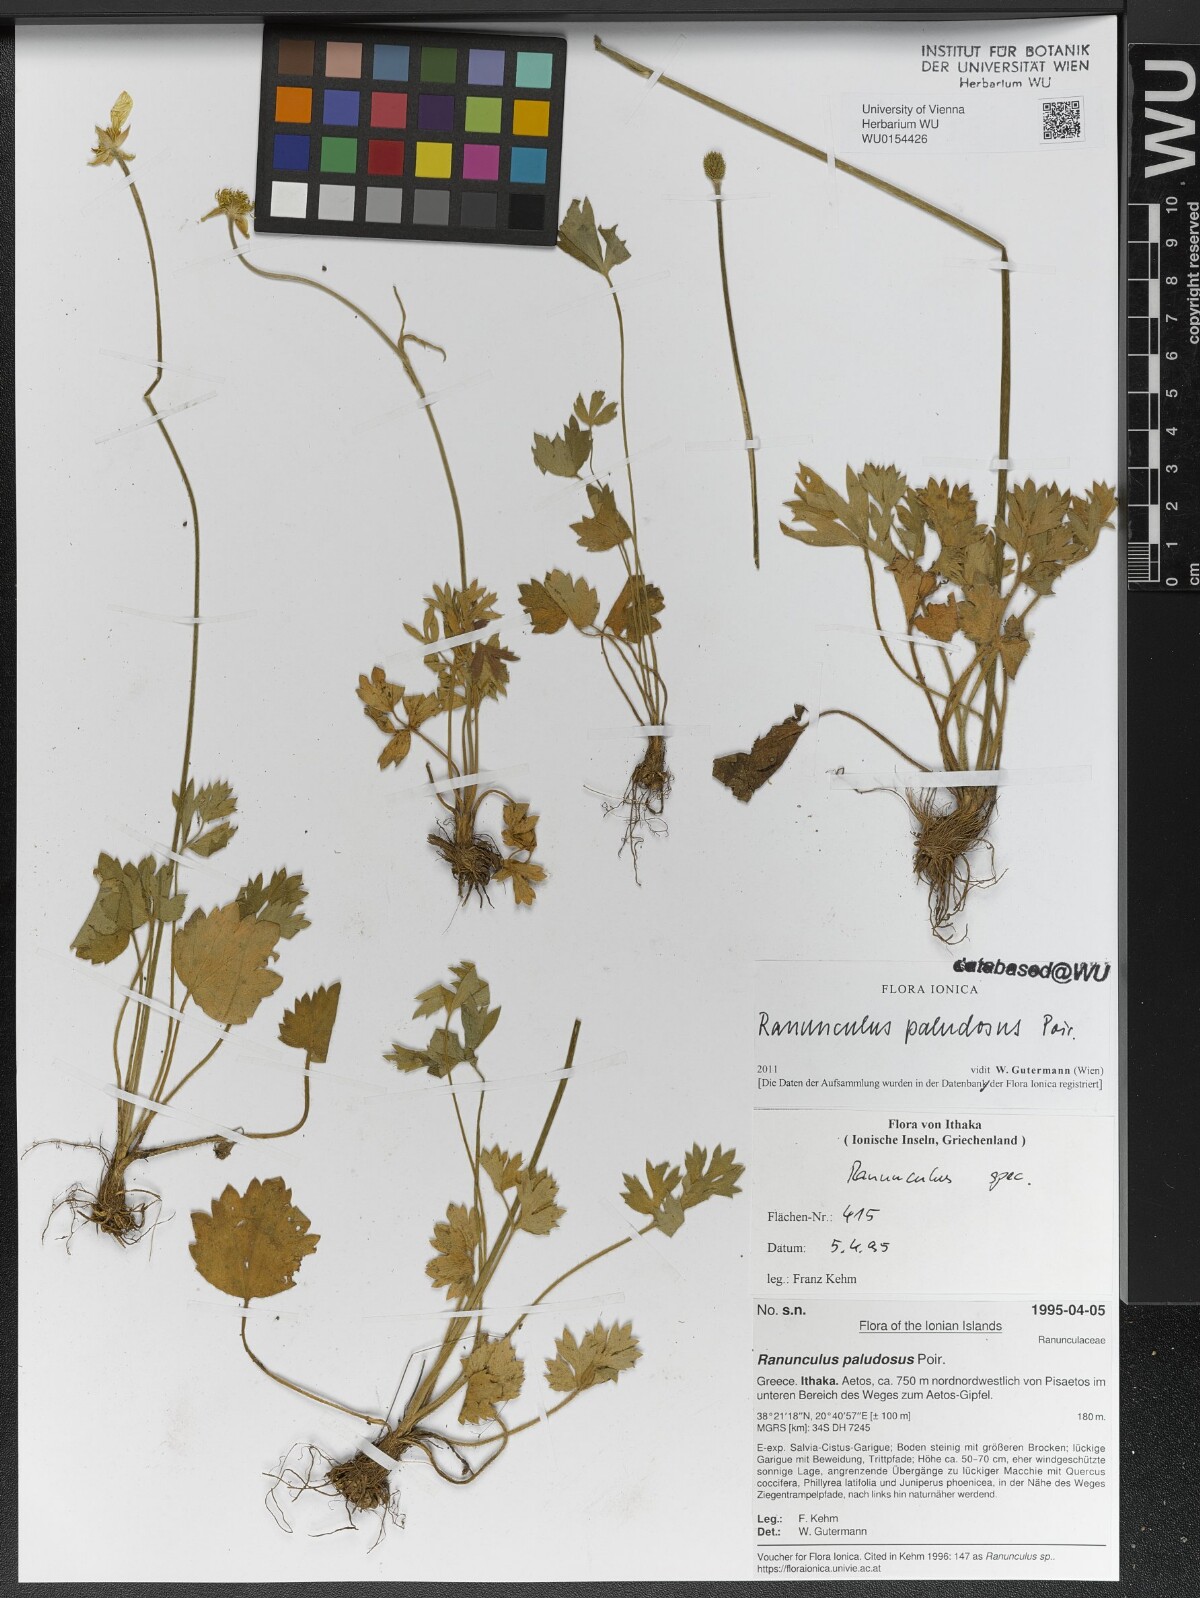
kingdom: Plantae
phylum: Tracheophyta
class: Magnoliopsida
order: Ranunculales
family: Ranunculaceae
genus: Ranunculus
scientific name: Ranunculus paludosus
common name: Jersey buttercup
